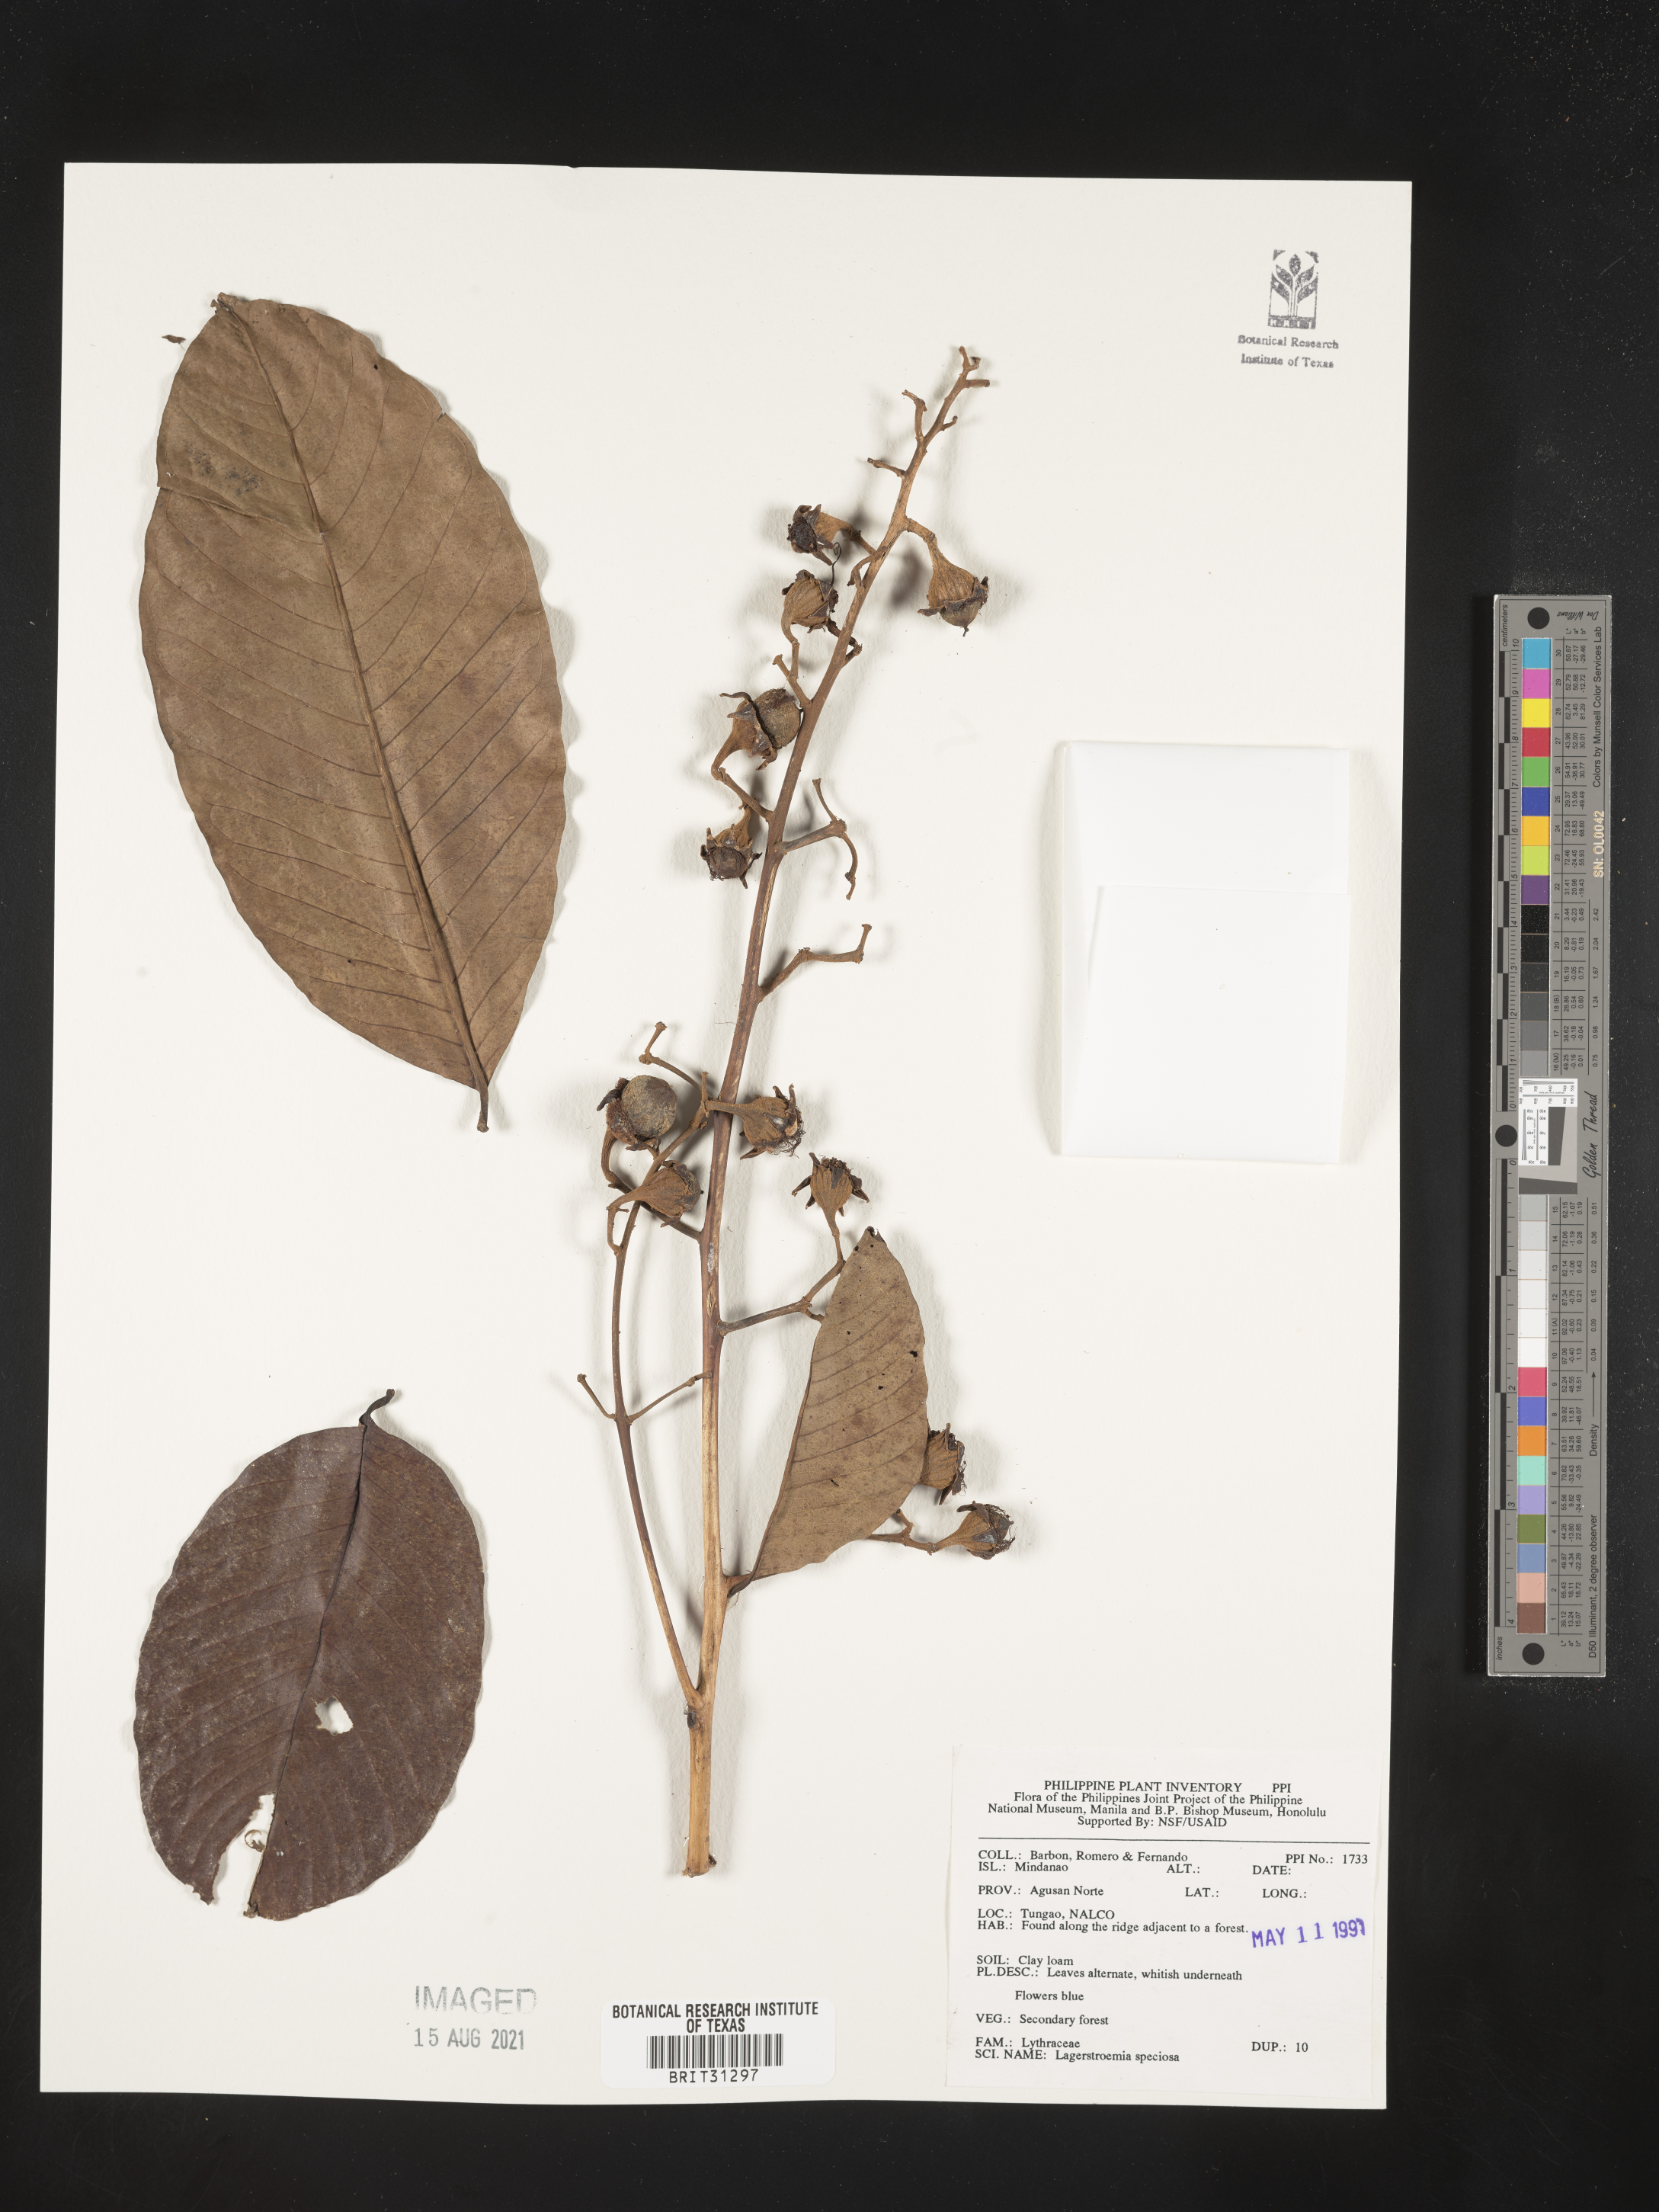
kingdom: Plantae
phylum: Tracheophyta
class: Magnoliopsida
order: Myrtales
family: Lythraceae
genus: Lagerstroemia
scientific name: Lagerstroemia speciosa
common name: Queen's crape-myrtle
